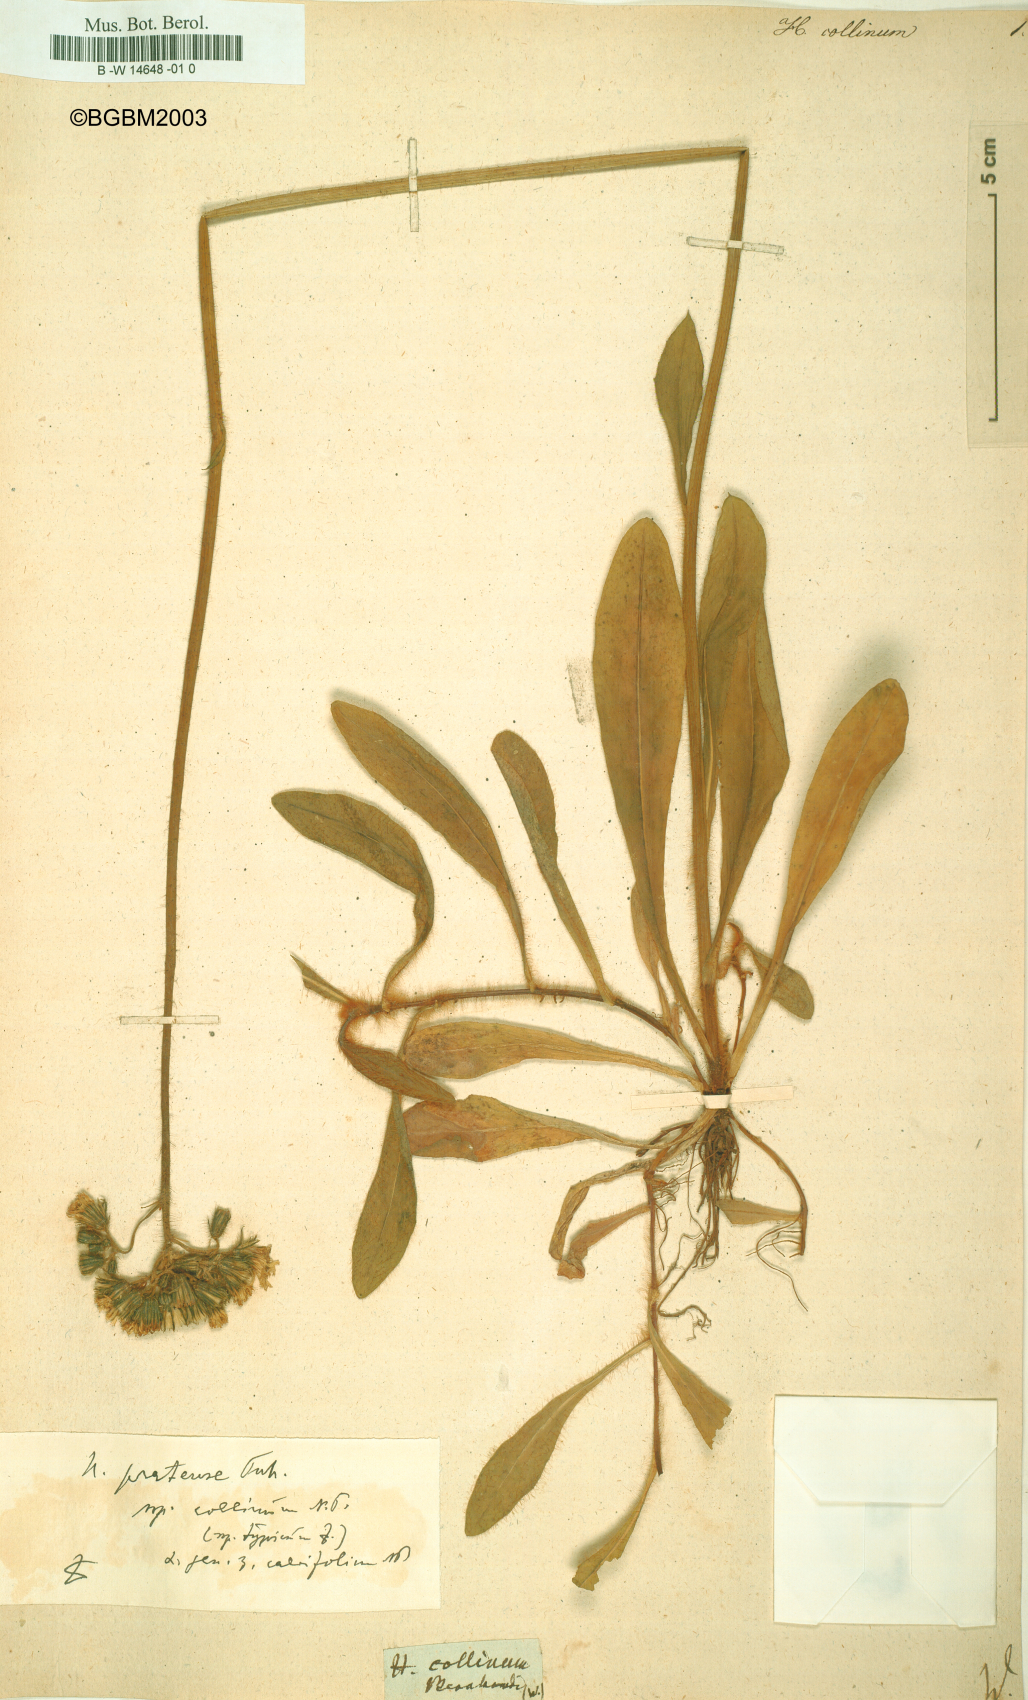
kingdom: Plantae
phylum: Tracheophyta
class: Magnoliopsida
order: Asterales
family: Asteraceae
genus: Hieracium
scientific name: Hieracium collinum
